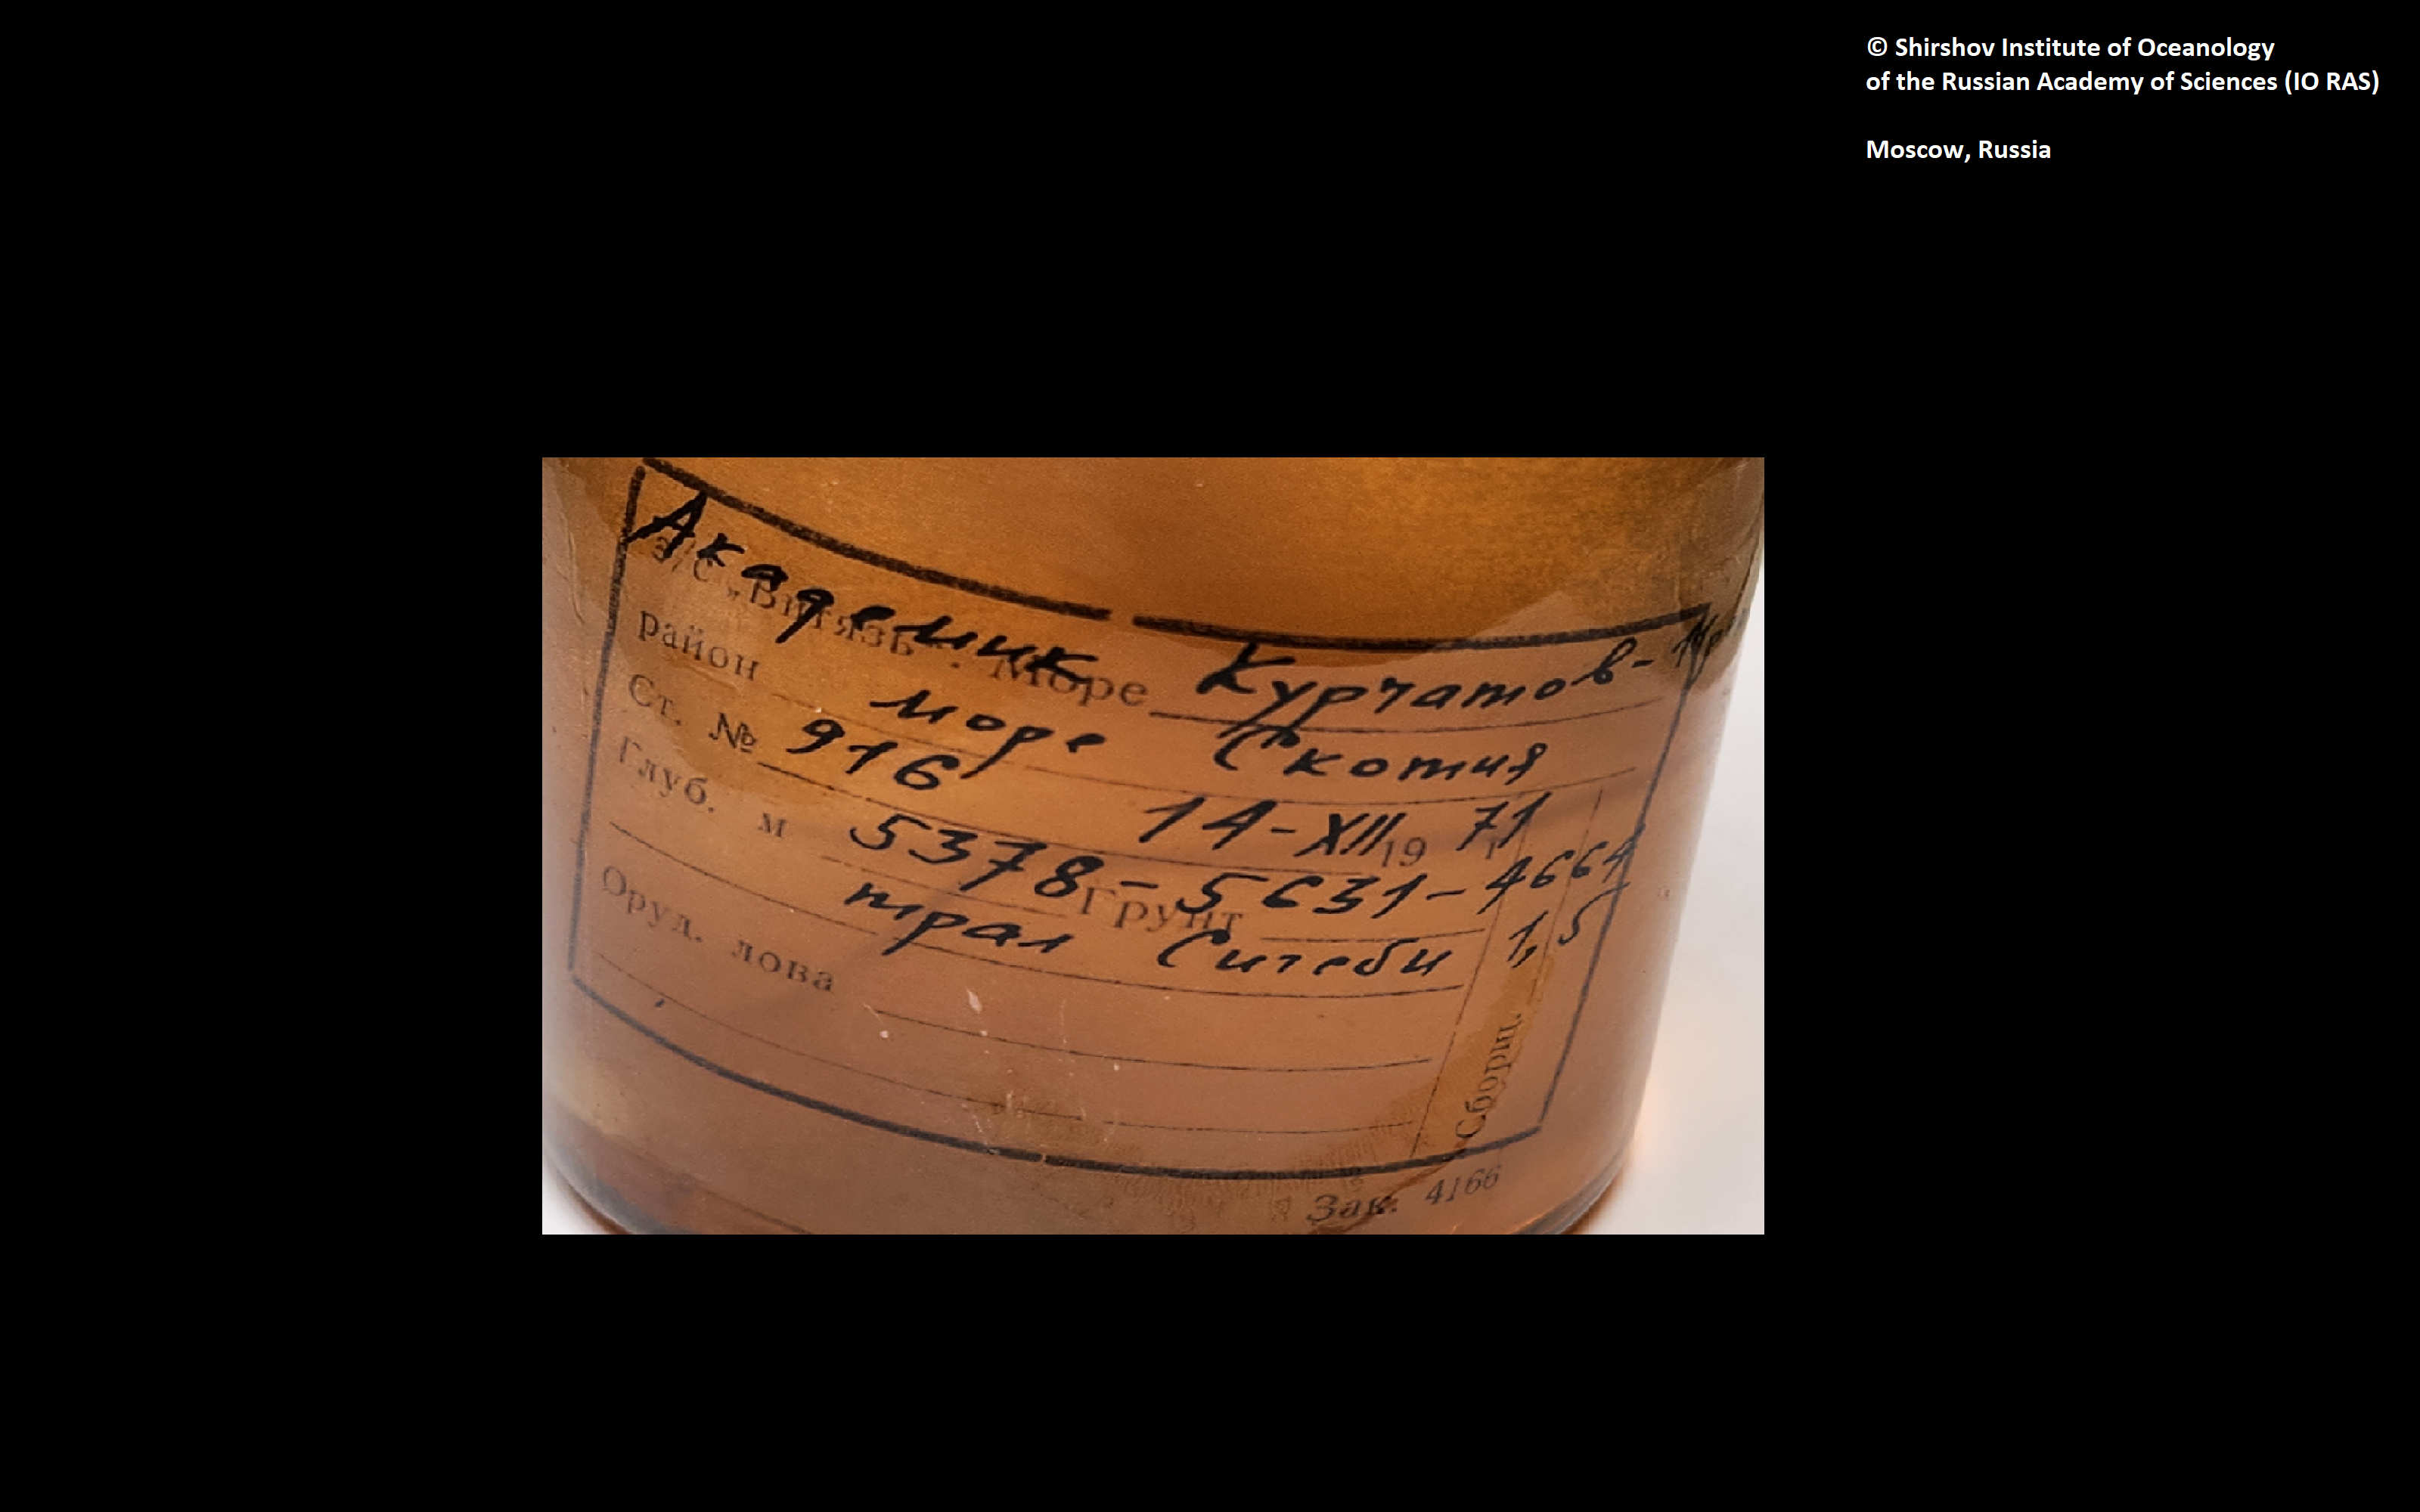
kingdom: Animalia
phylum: Arthropoda
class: Pycnogonida
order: Pantopoda
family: Colossendeidae
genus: Colossendeis
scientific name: Colossendeis kurtchatovi
